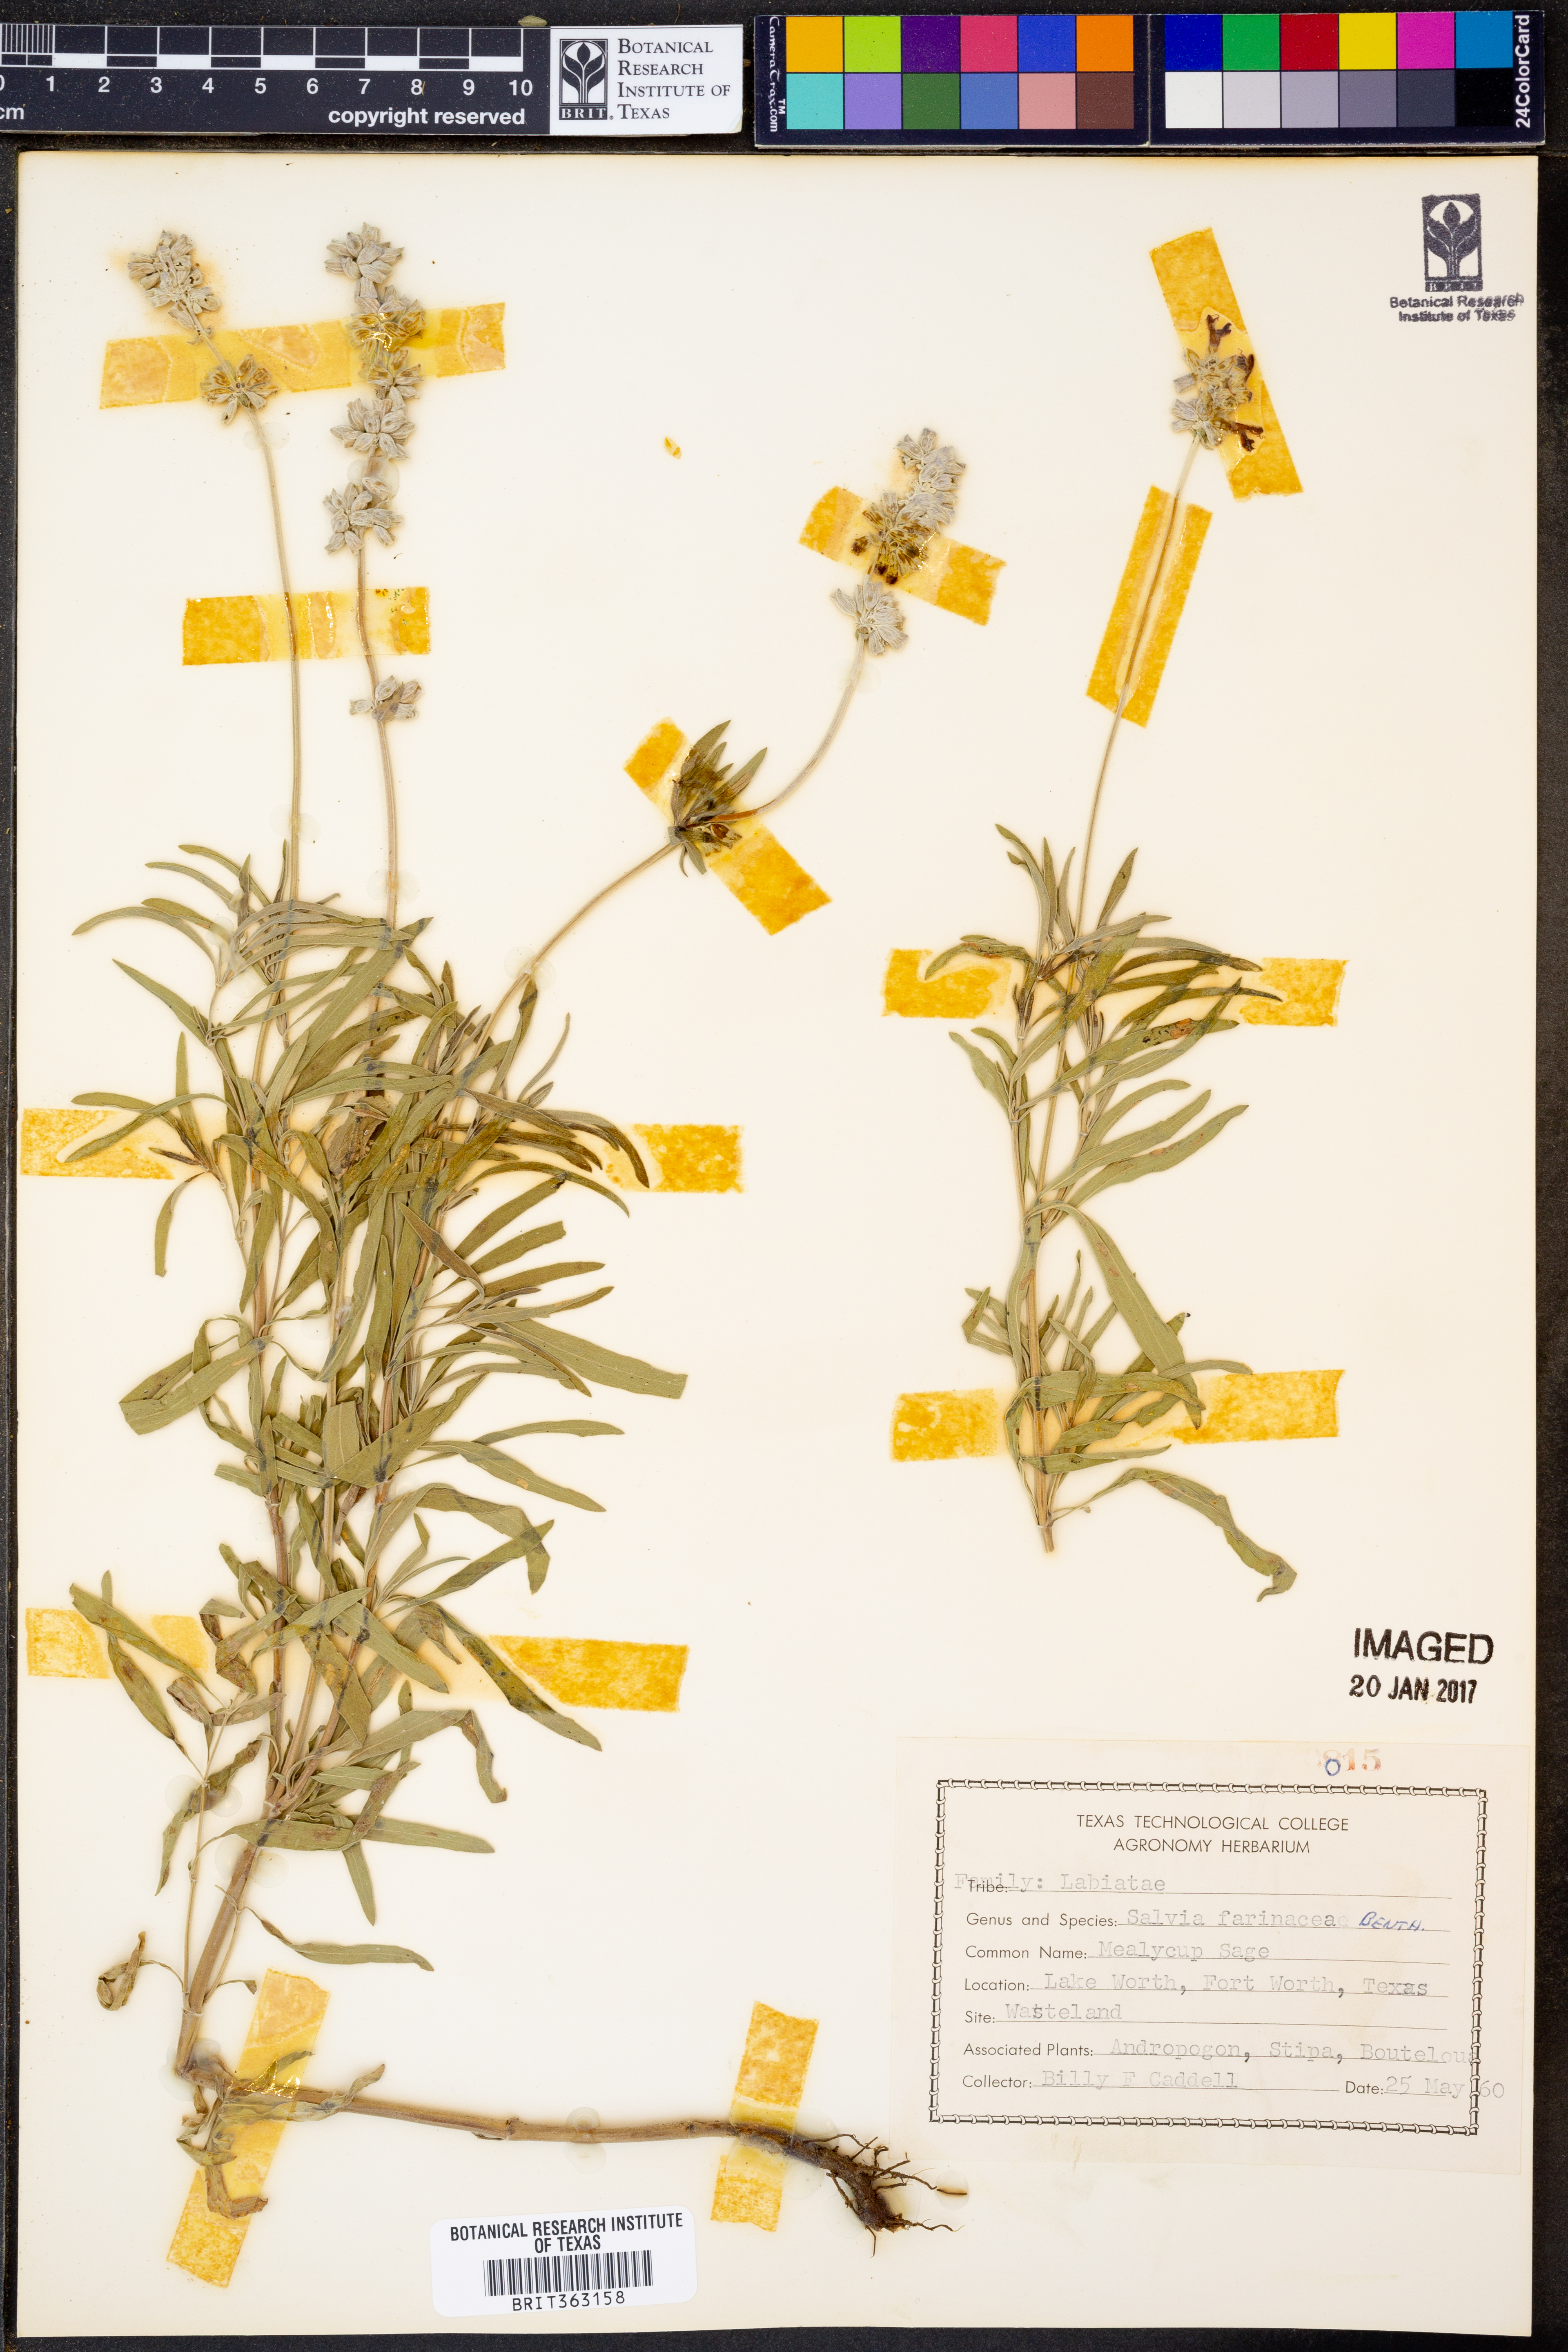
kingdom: Plantae
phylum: Tracheophyta
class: Magnoliopsida
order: Lamiales
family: Lamiaceae
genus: Salvia
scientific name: Salvia farinacea
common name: Mealy sage
